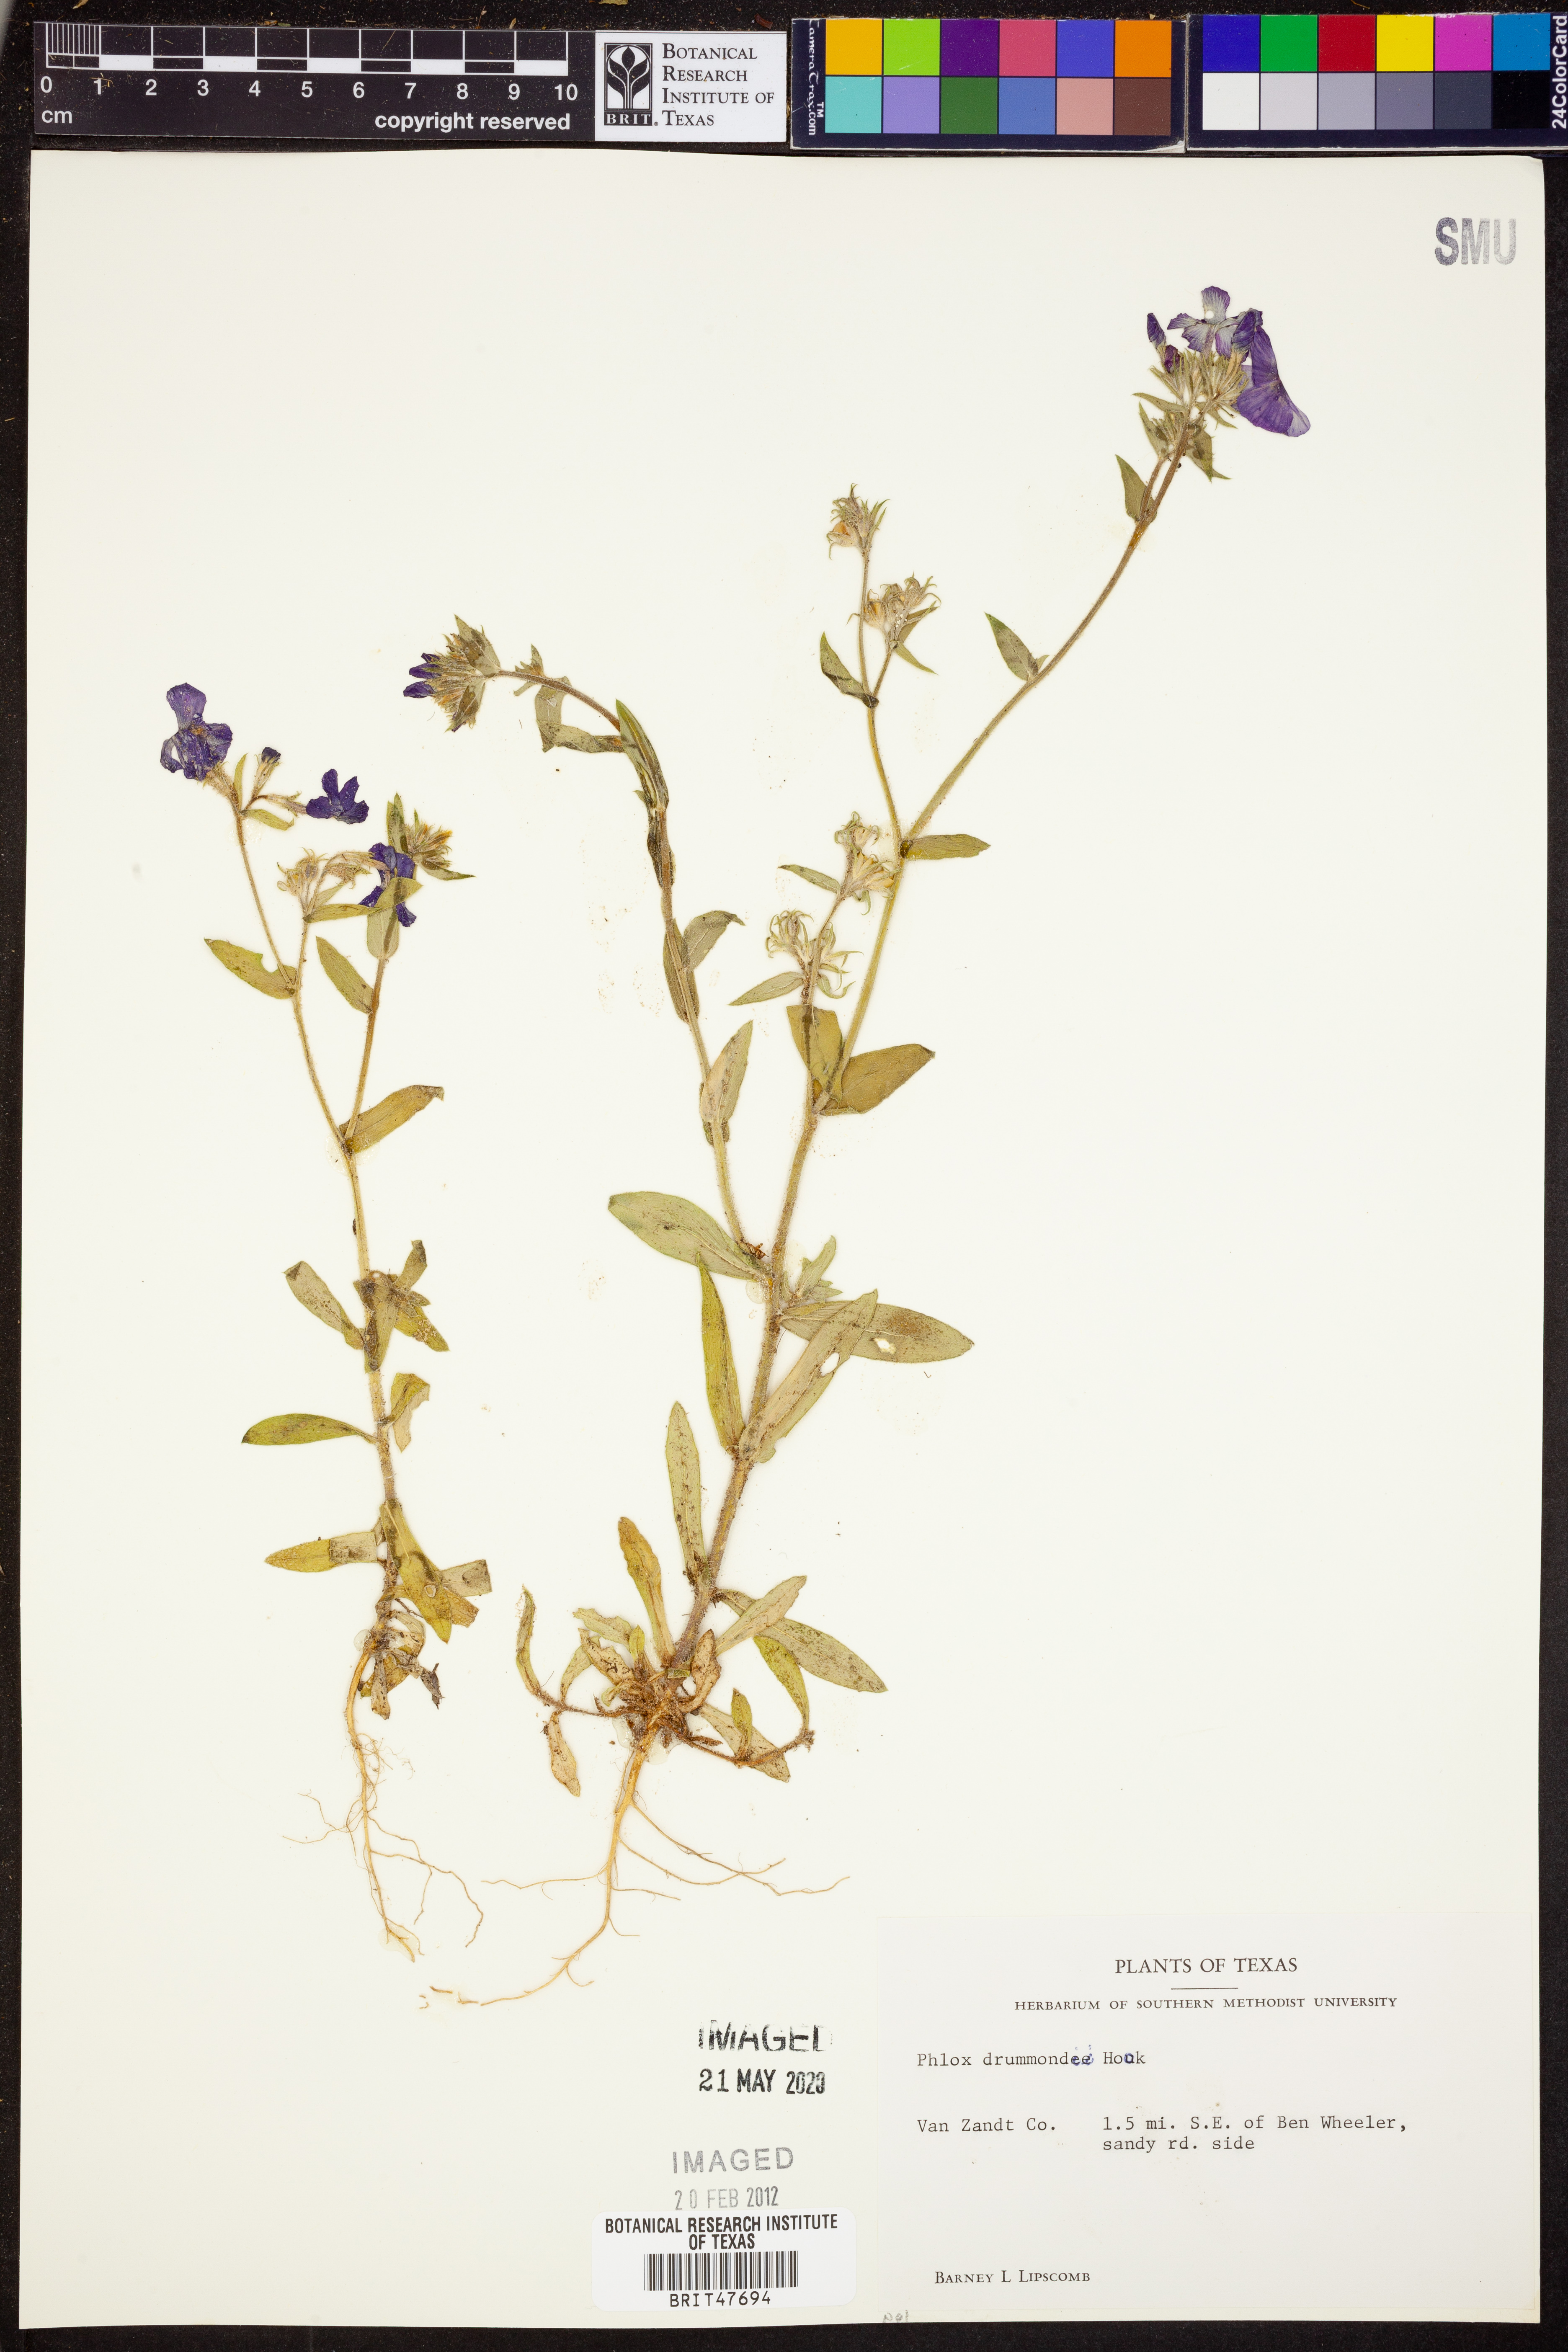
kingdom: Plantae
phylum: Tracheophyta
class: Magnoliopsida
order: Ericales
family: Polemoniaceae
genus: Phlox
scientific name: Phlox drummondii
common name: Drummond's phlox
